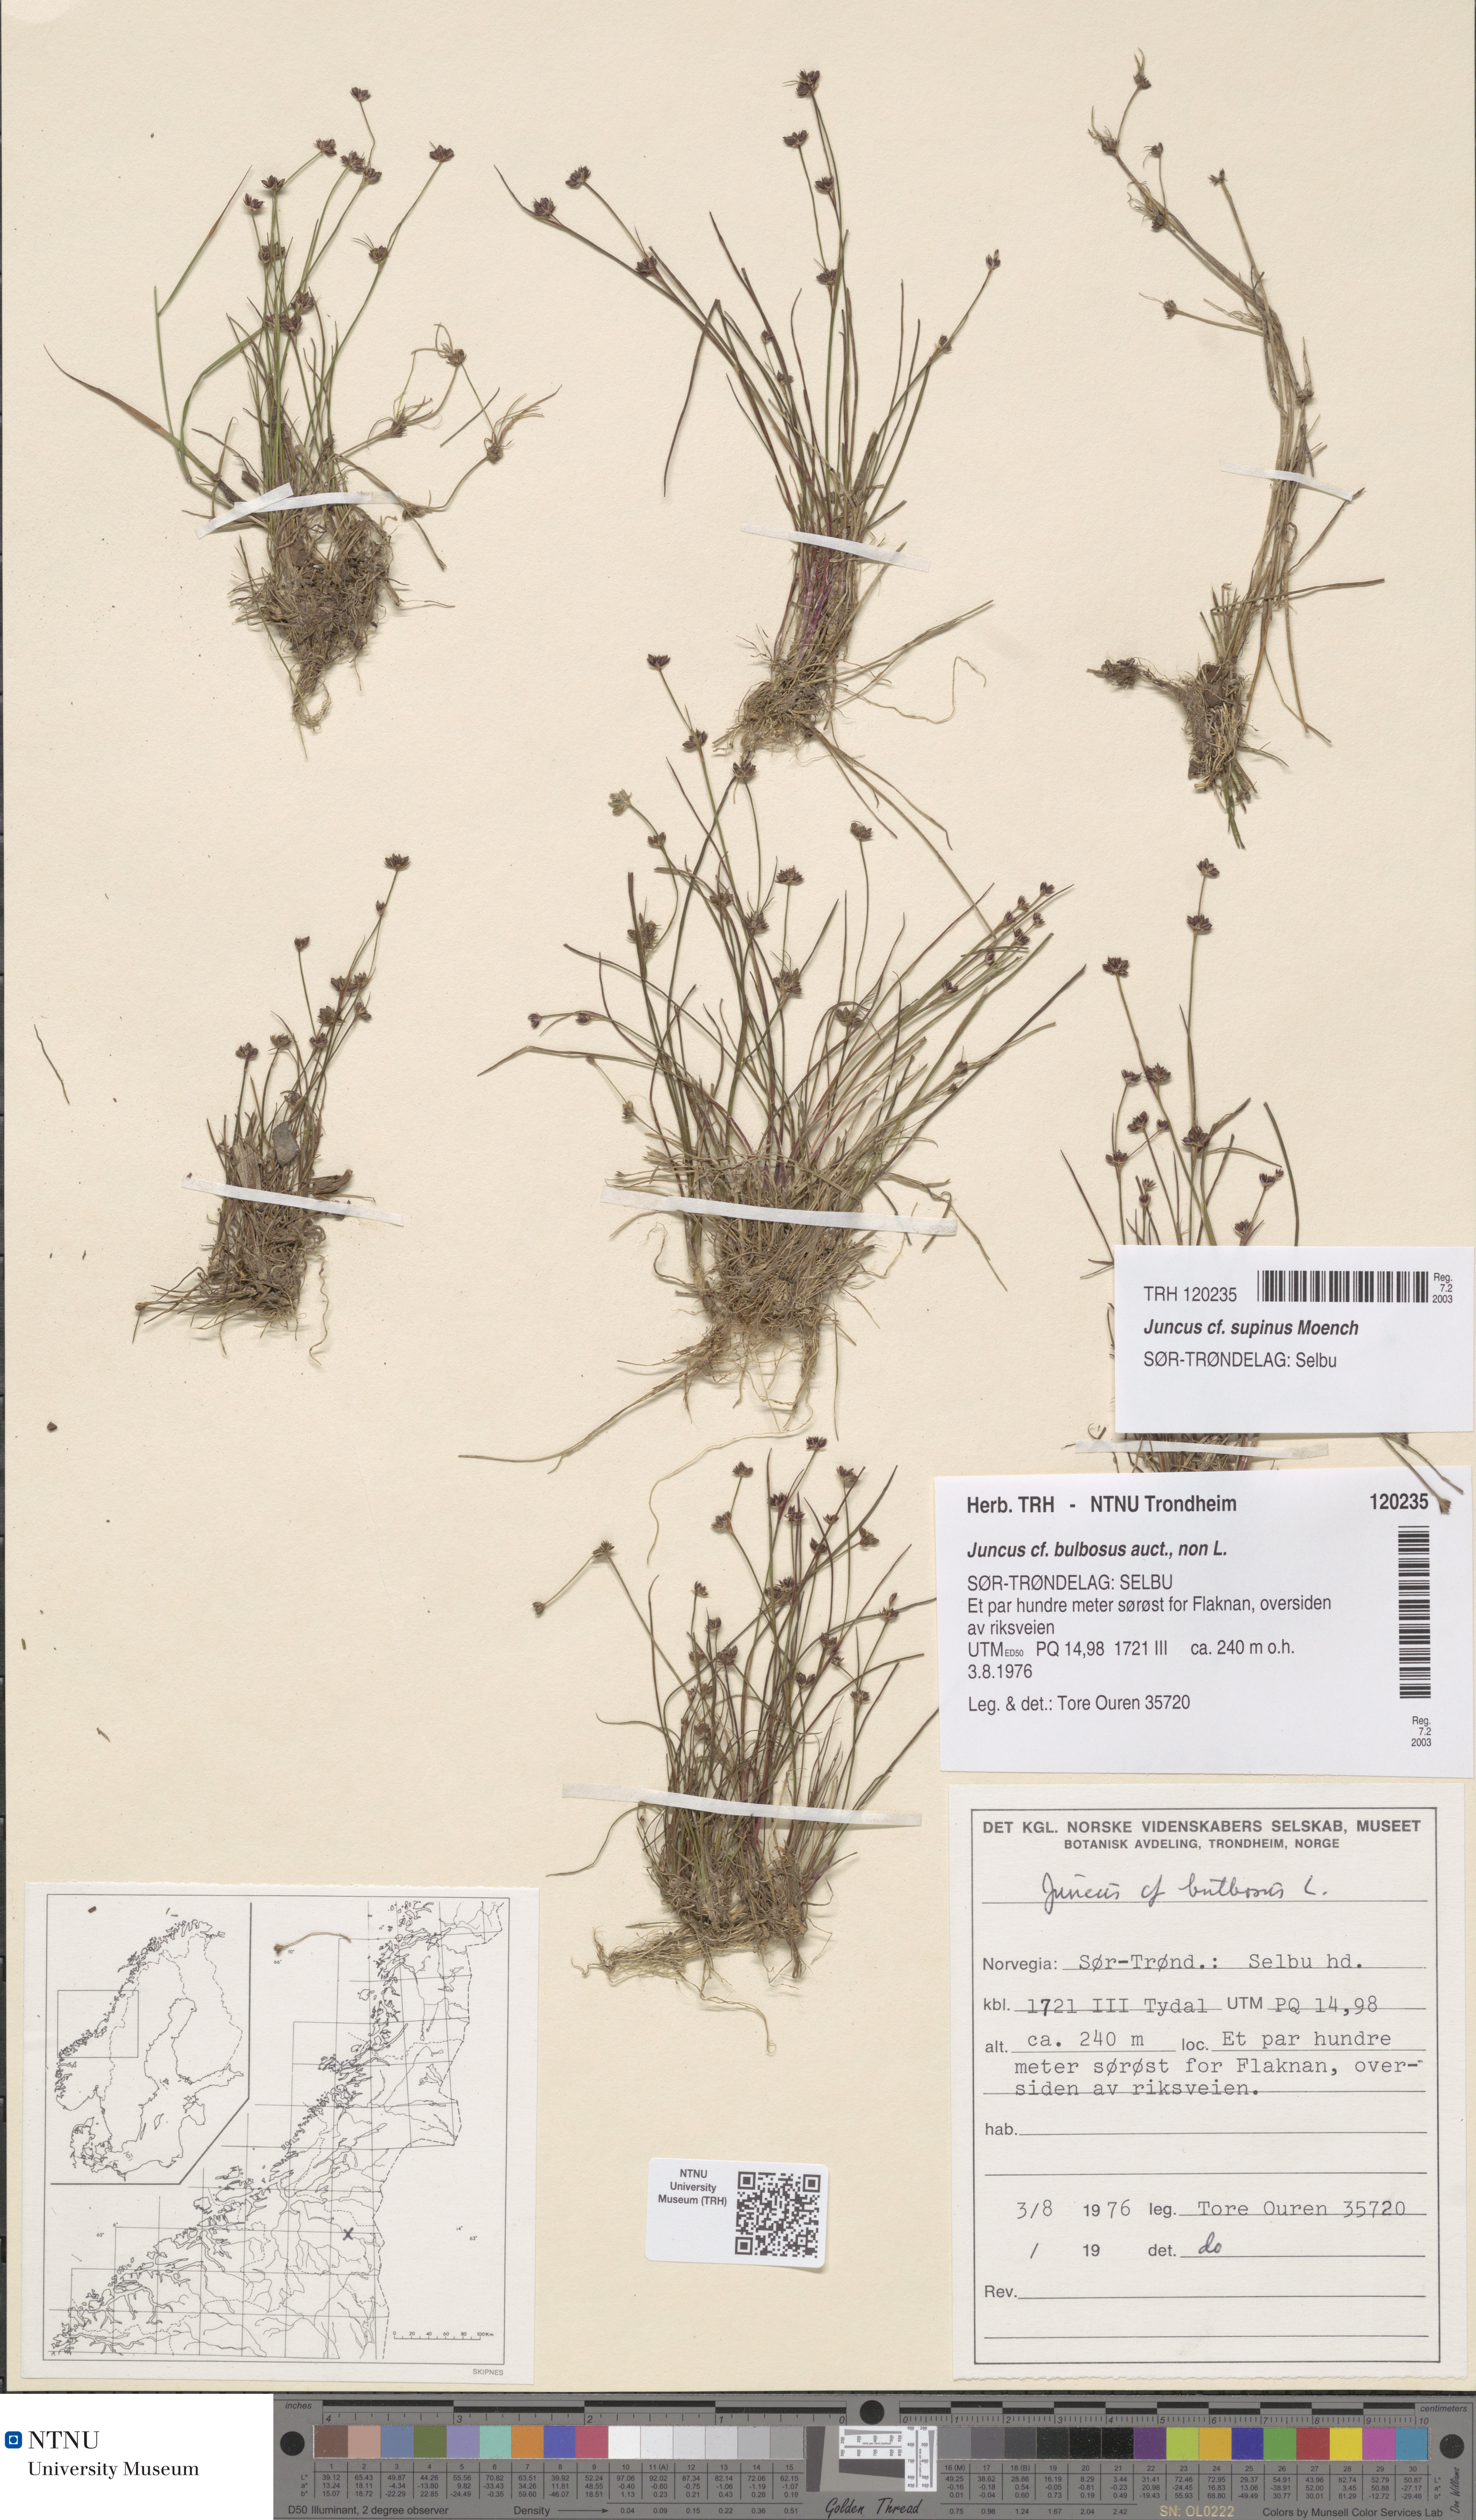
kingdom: Plantae
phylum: Tracheophyta
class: Liliopsida
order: Poales
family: Juncaceae
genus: Juncus
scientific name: Juncus bulbosus
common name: Bulbous rush
